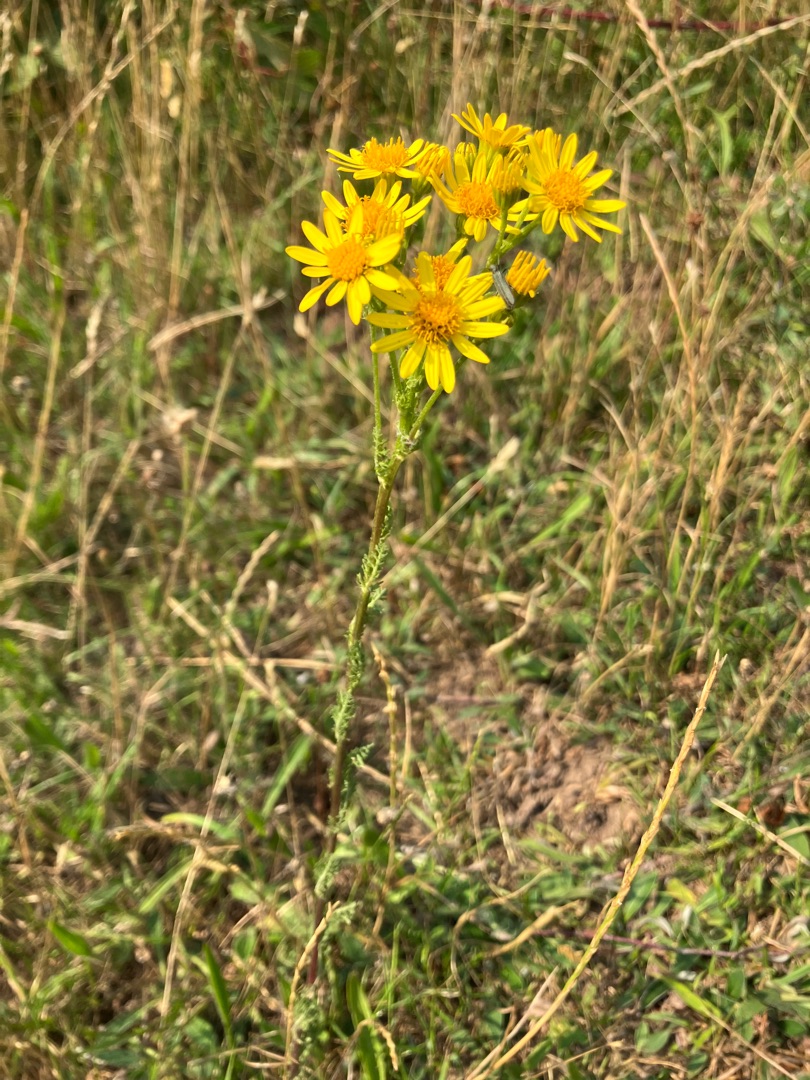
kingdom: Plantae
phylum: Tracheophyta
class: Magnoliopsida
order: Asterales
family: Asteraceae
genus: Jacobaea
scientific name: Jacobaea vulgaris
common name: Eng-brandbæger
